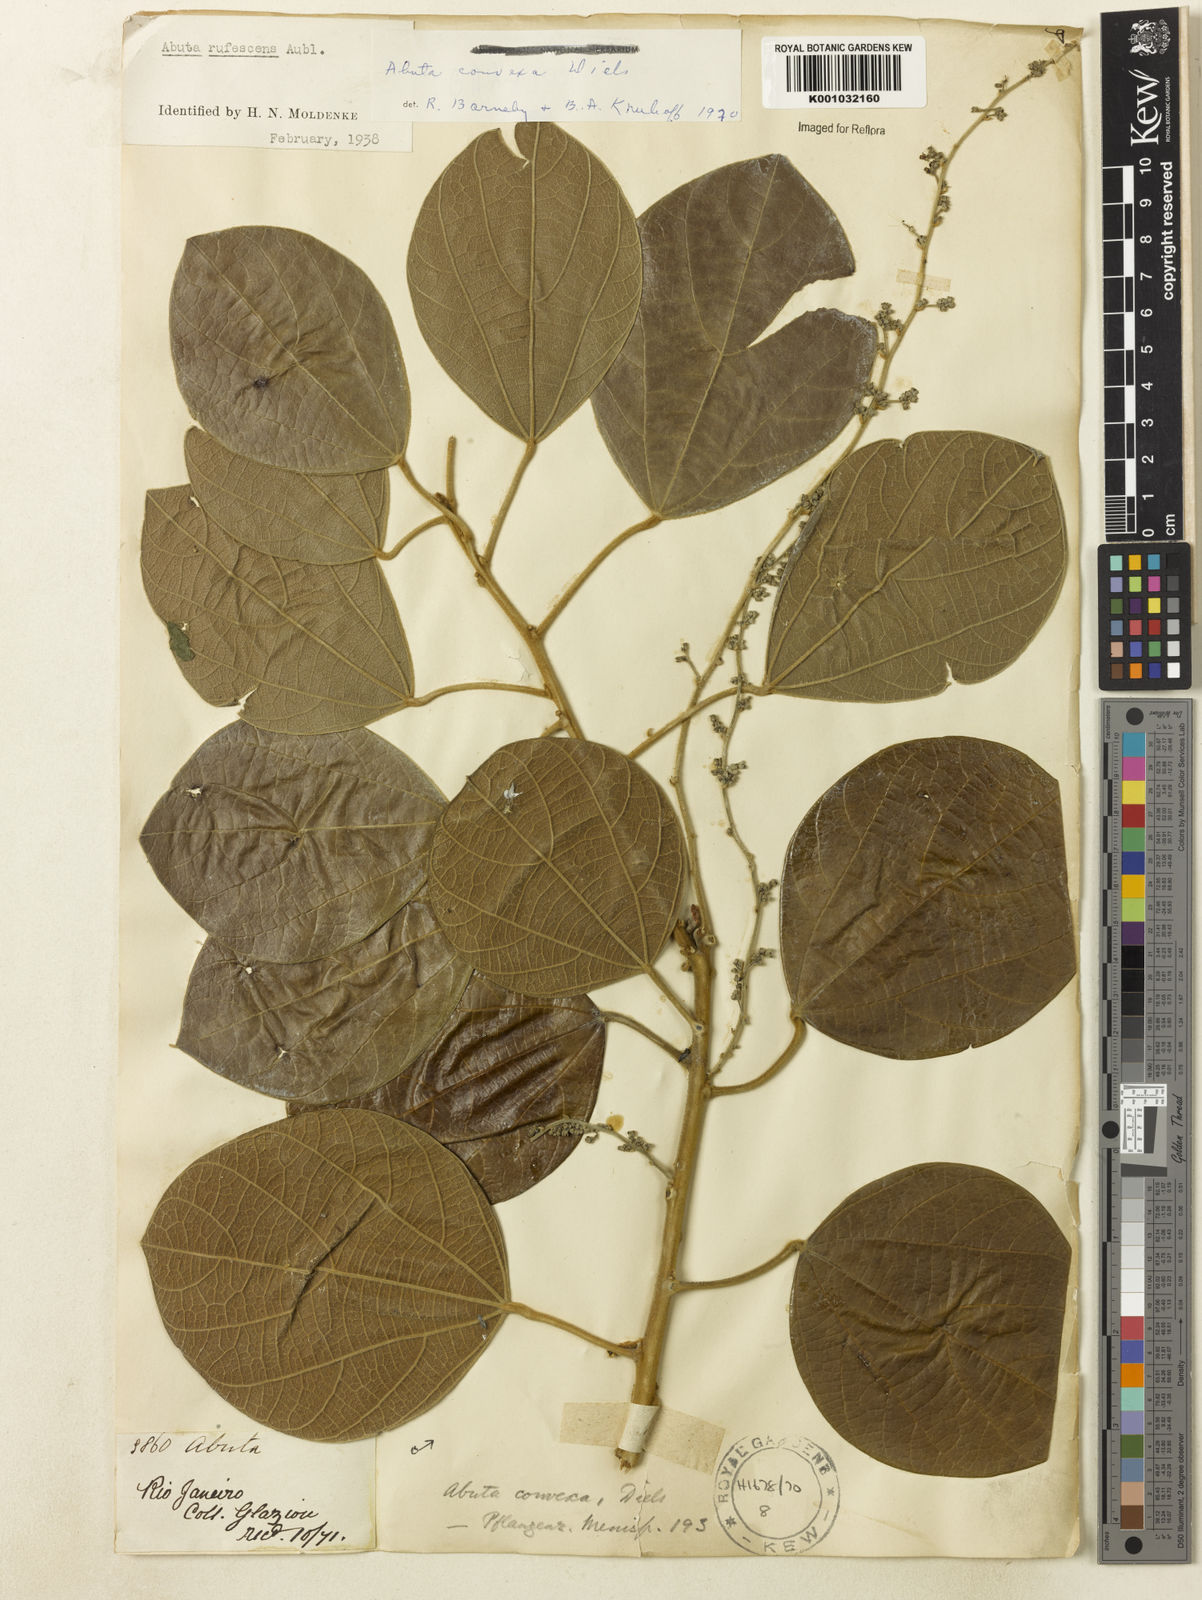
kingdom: Plantae
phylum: Tracheophyta
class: Magnoliopsida
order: Ranunculales
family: Menispermaceae
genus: Abuta
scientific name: Abuta rufescens
